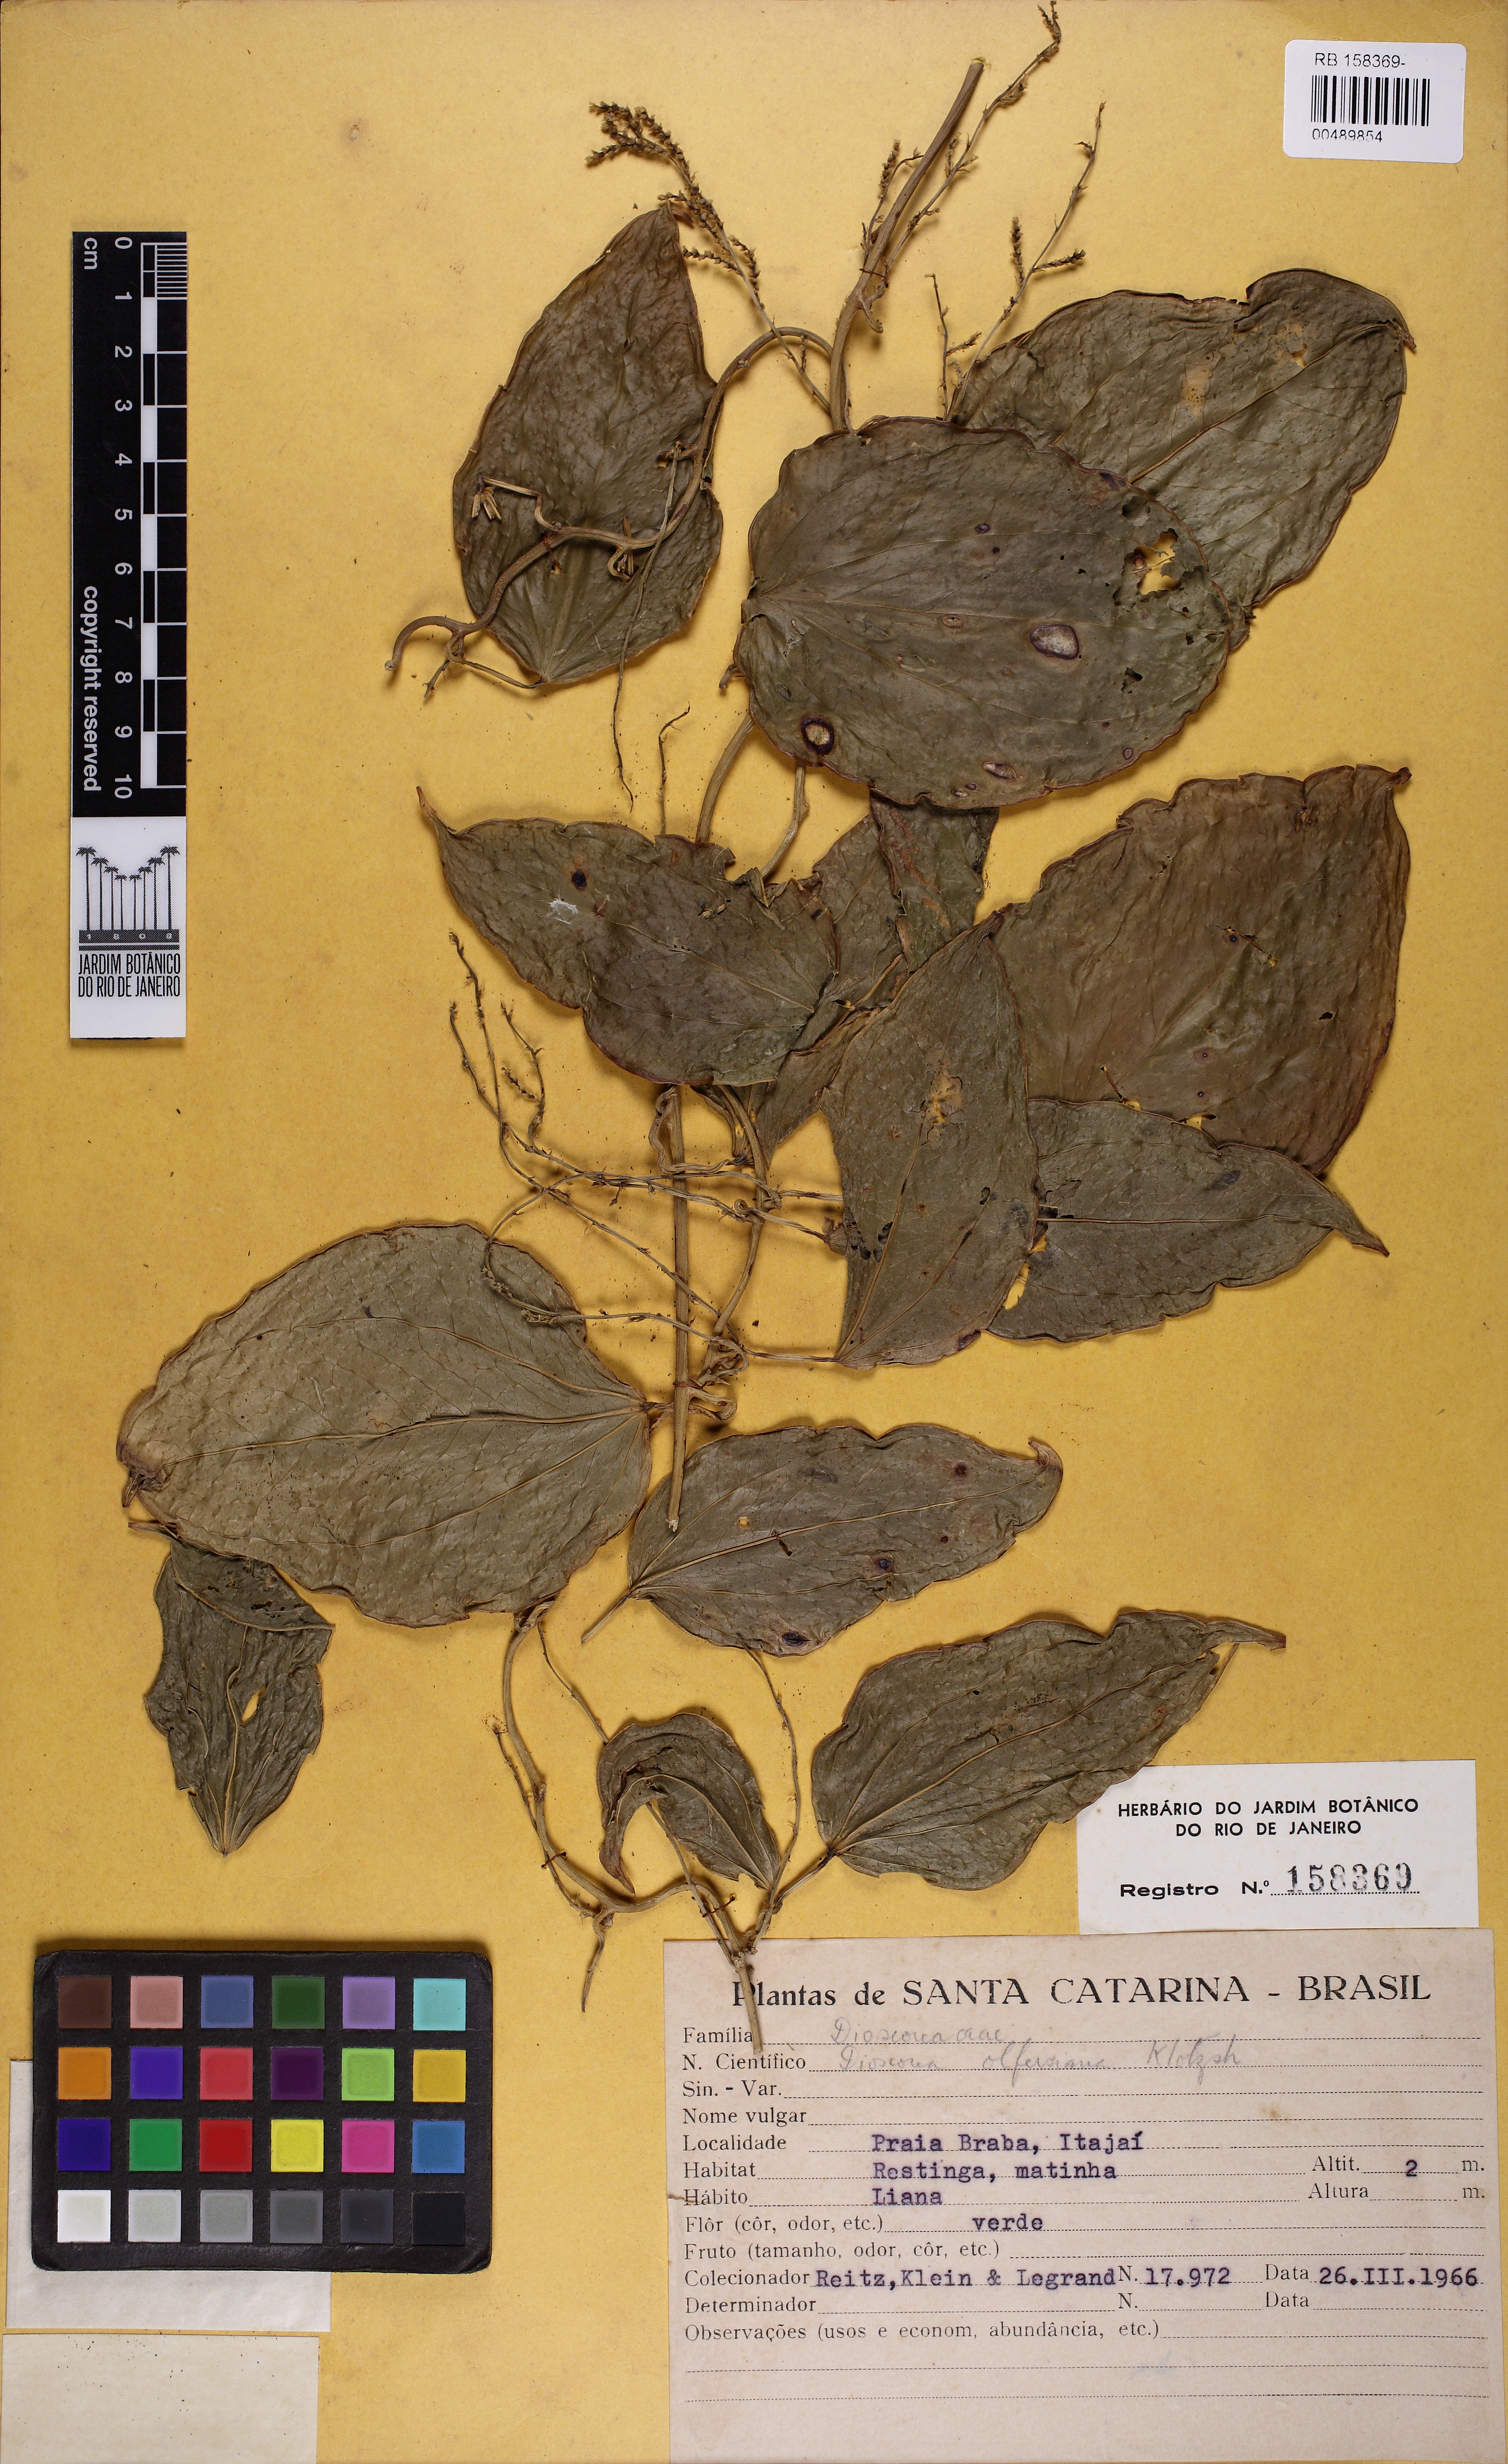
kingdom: Plantae
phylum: Tracheophyta
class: Liliopsida
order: Dioscoreales
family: Dioscoreaceae
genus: Dioscorea
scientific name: Dioscorea olfersiana
